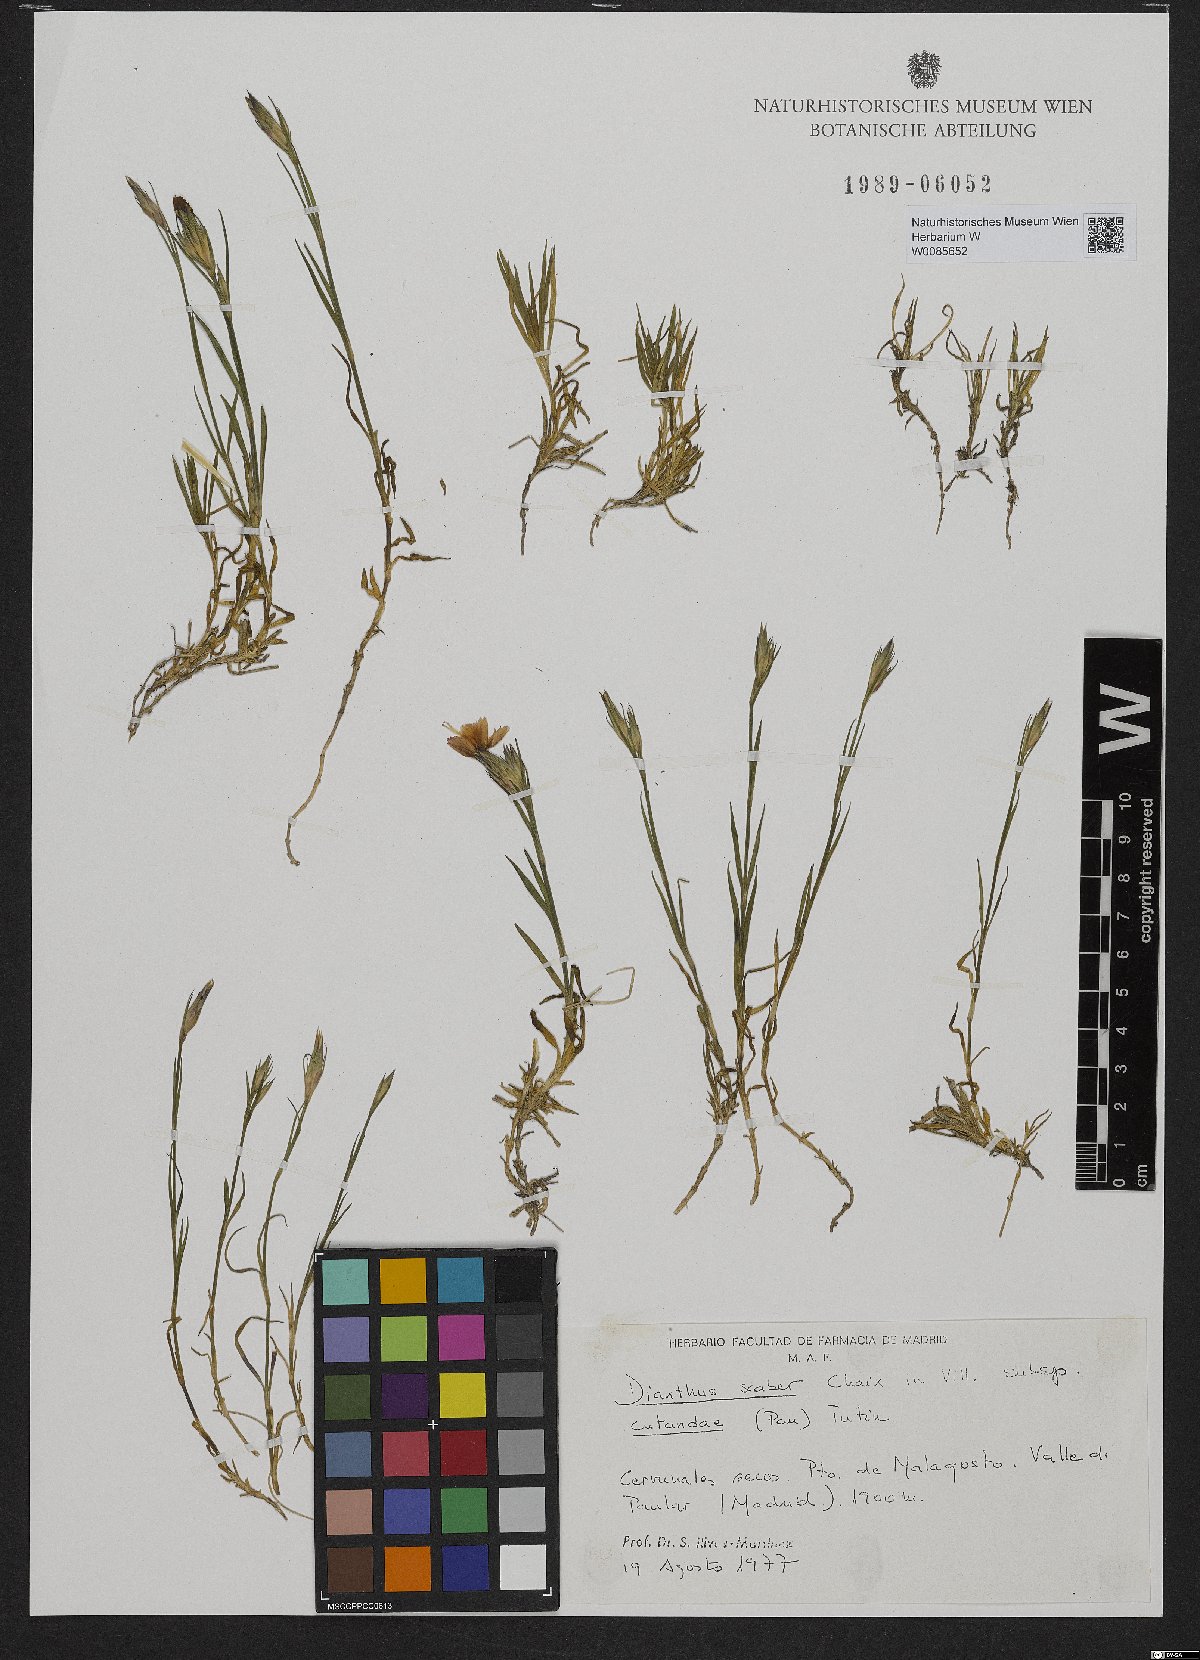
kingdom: Plantae
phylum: Tracheophyta
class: Magnoliopsida
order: Caryophyllales
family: Caryophyllaceae
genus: Dianthus
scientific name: Dianthus scaber
